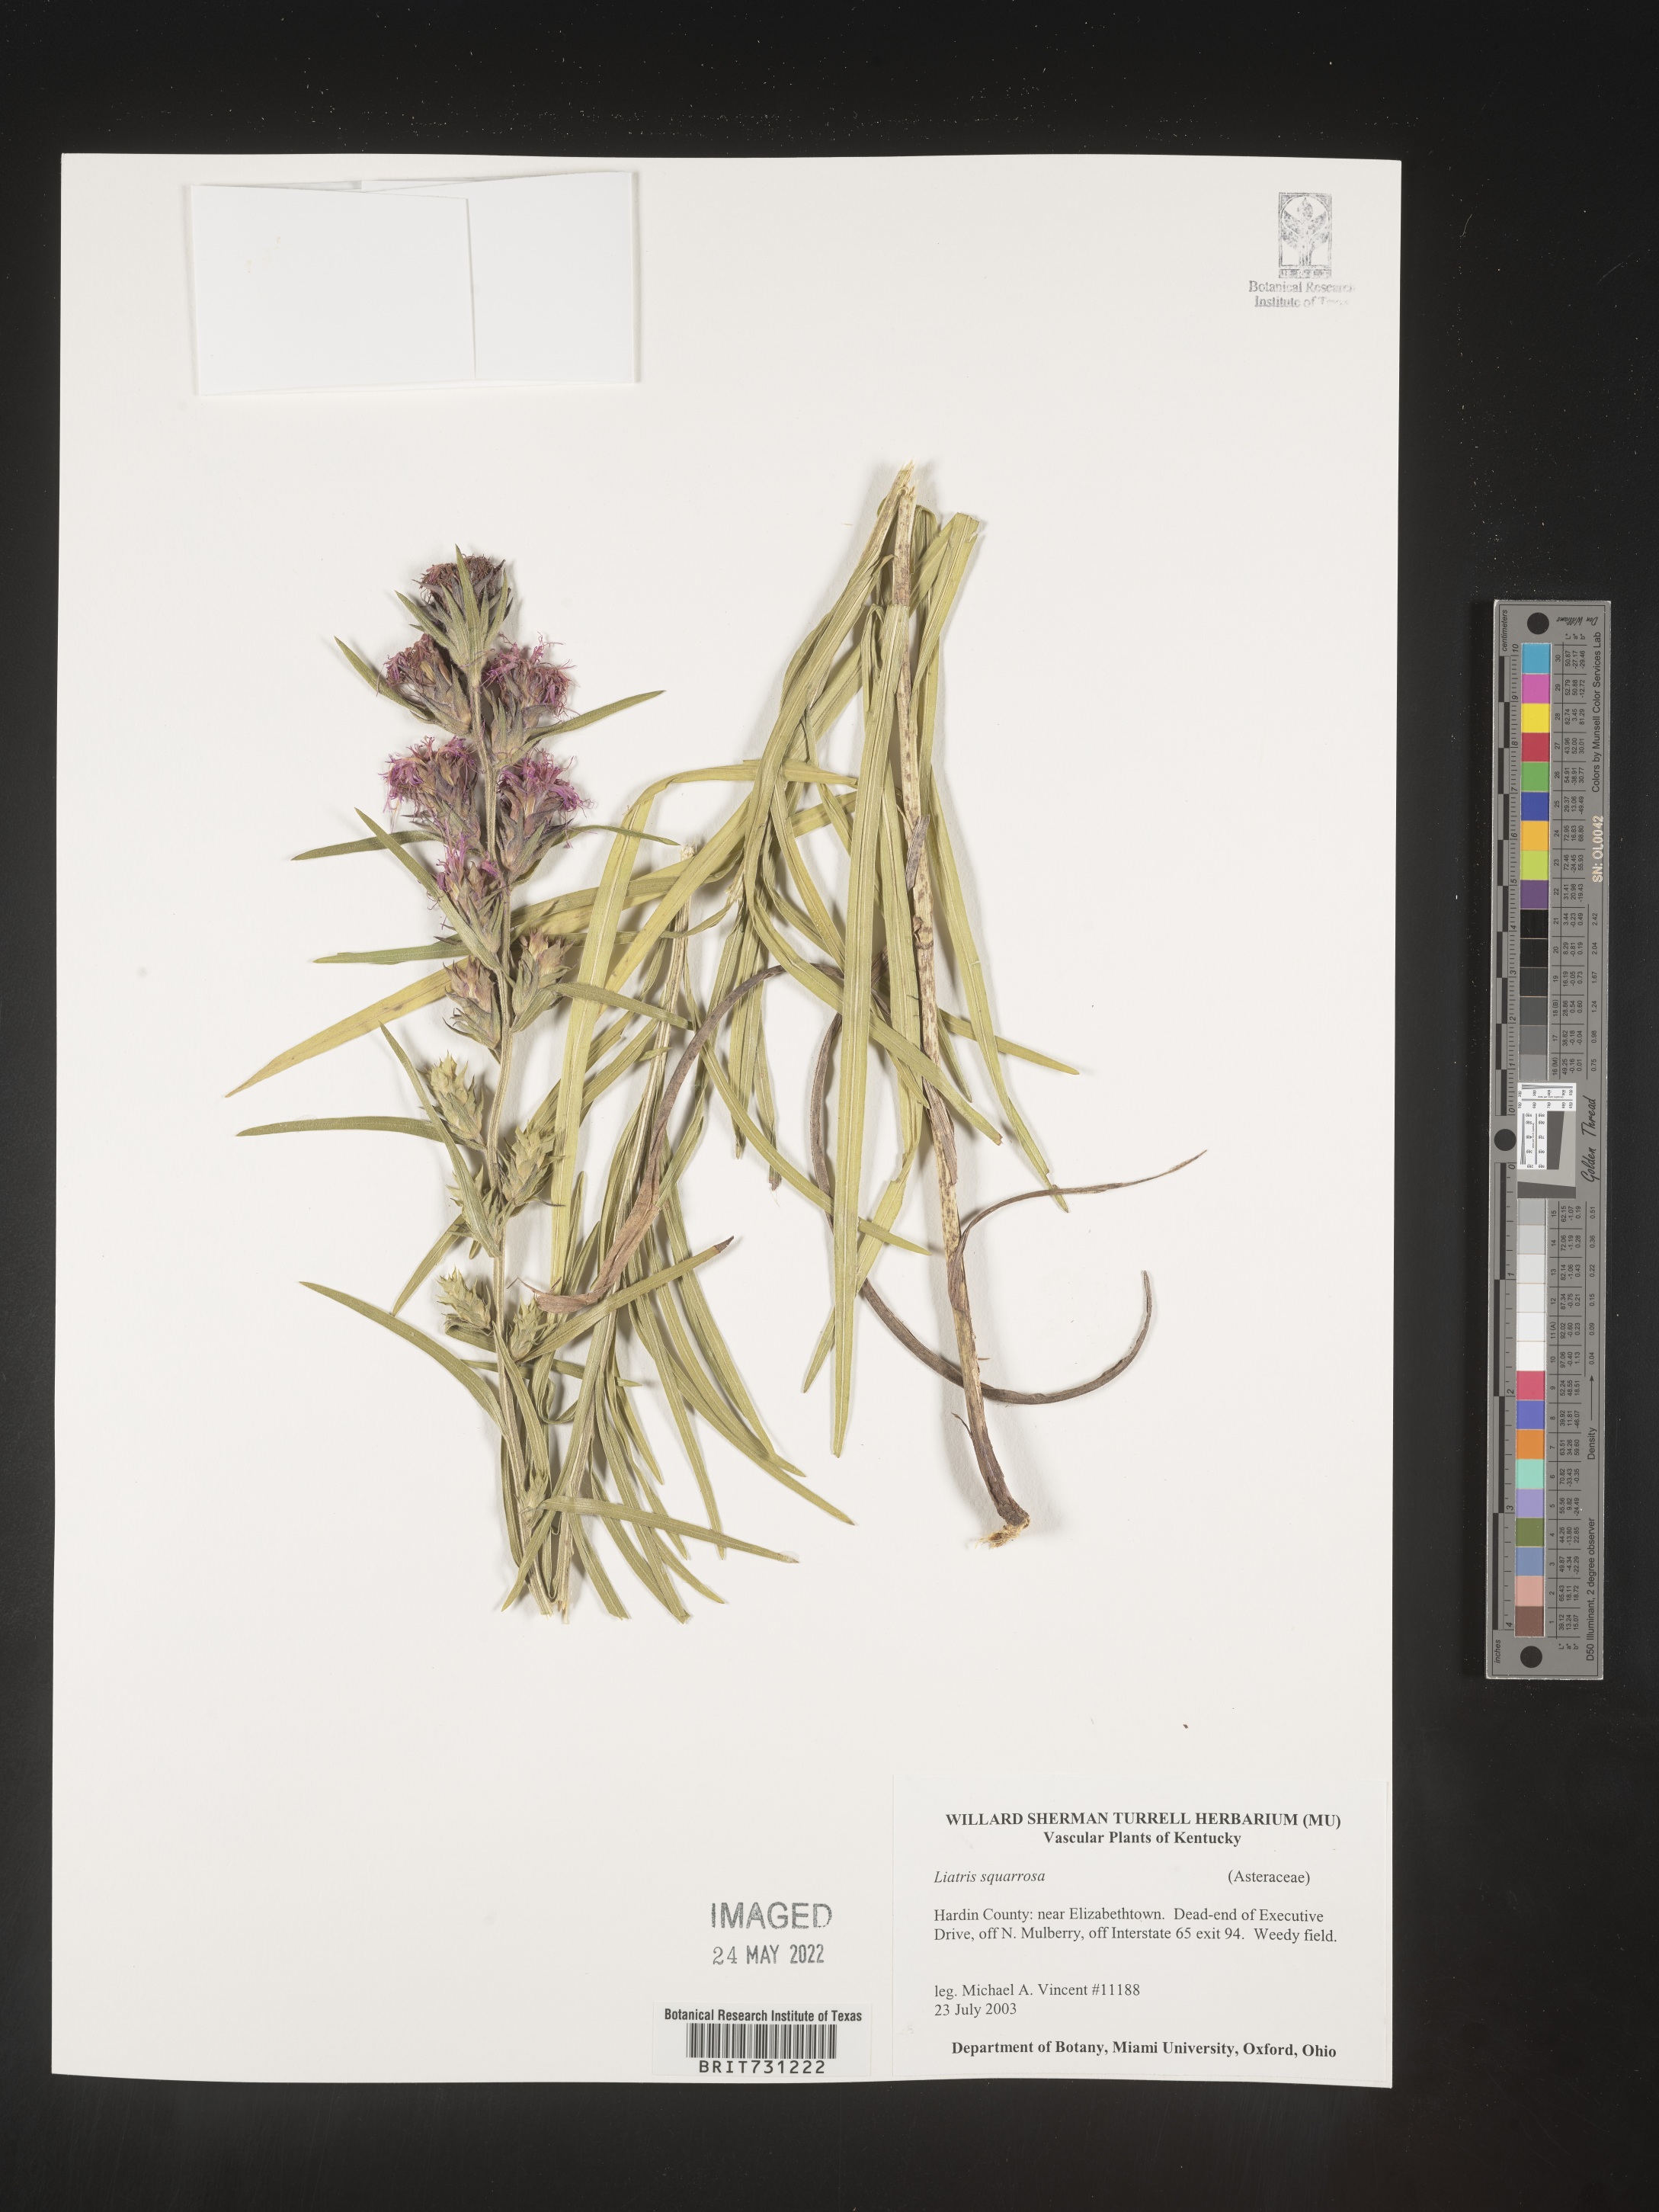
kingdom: Plantae
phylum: Tracheophyta
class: Magnoliopsida
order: Asterales
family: Asteraceae
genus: Liatris
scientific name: Liatris squarrosa
